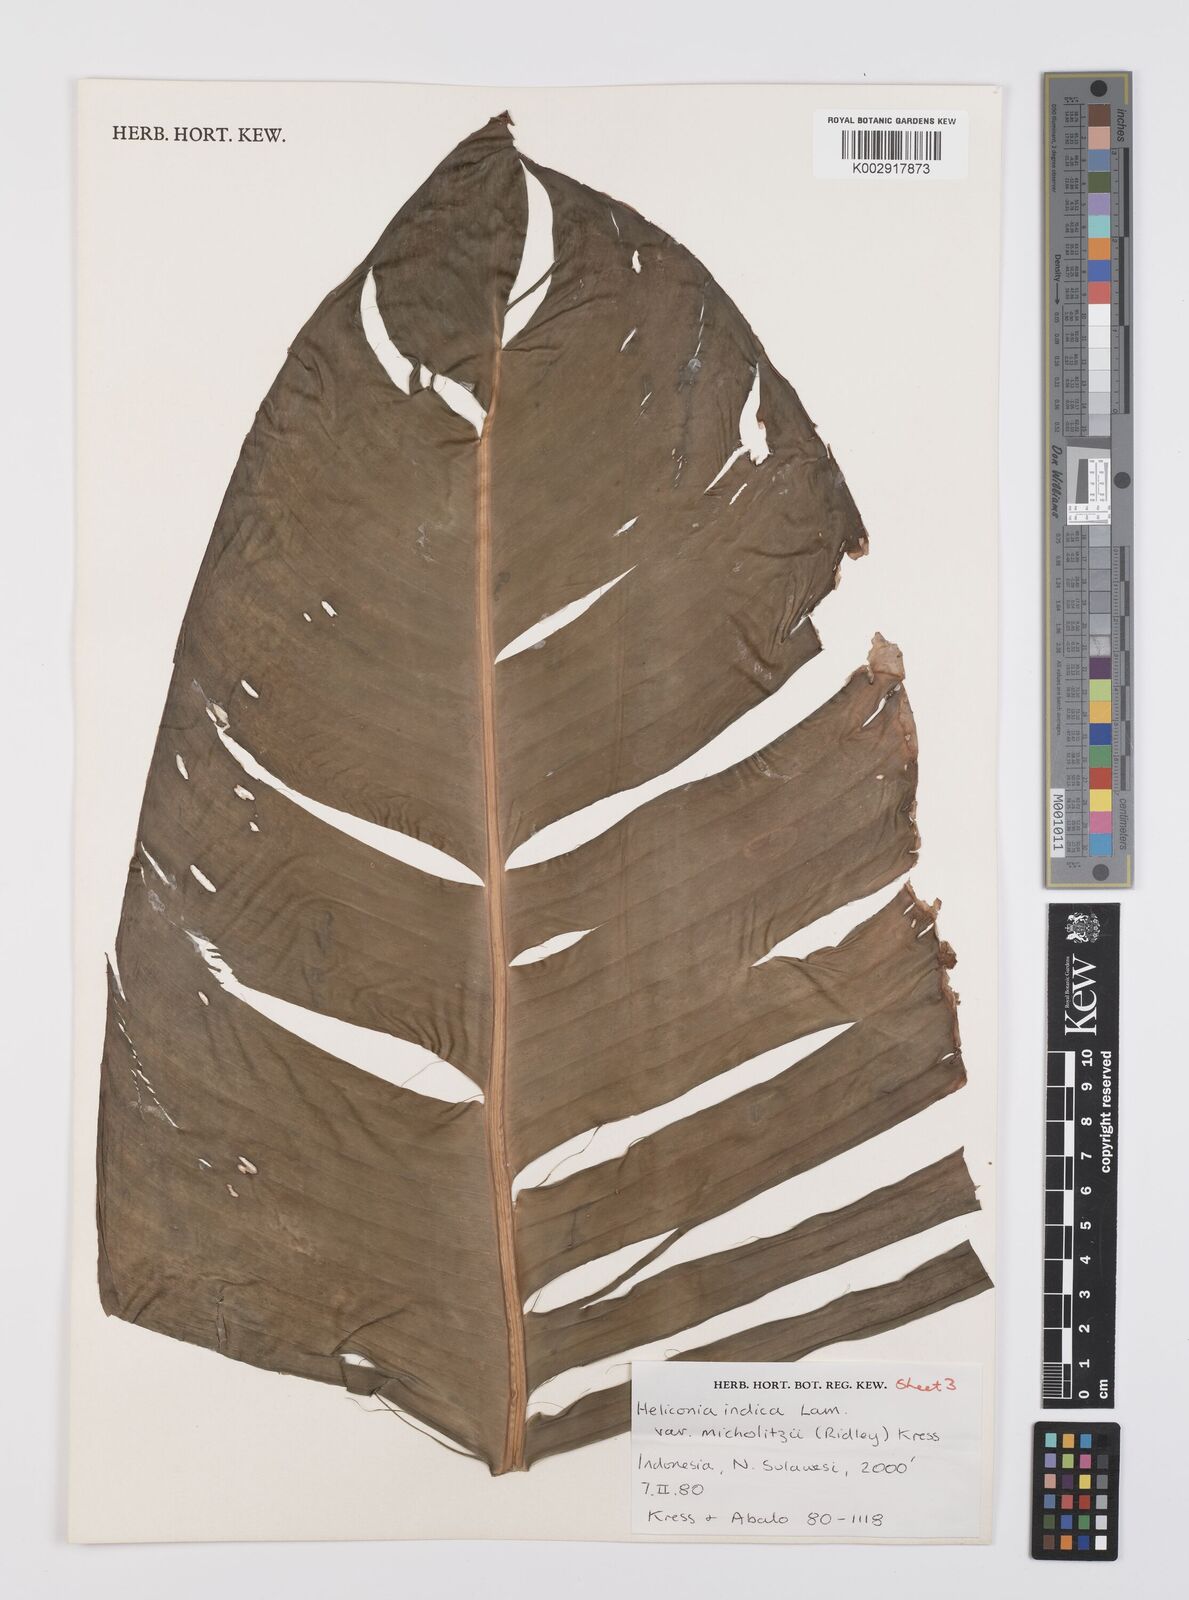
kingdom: Plantae
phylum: Tracheophyta
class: Liliopsida
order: Zingiberales
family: Heliconiaceae
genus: Heliconia
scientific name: Heliconia indica
